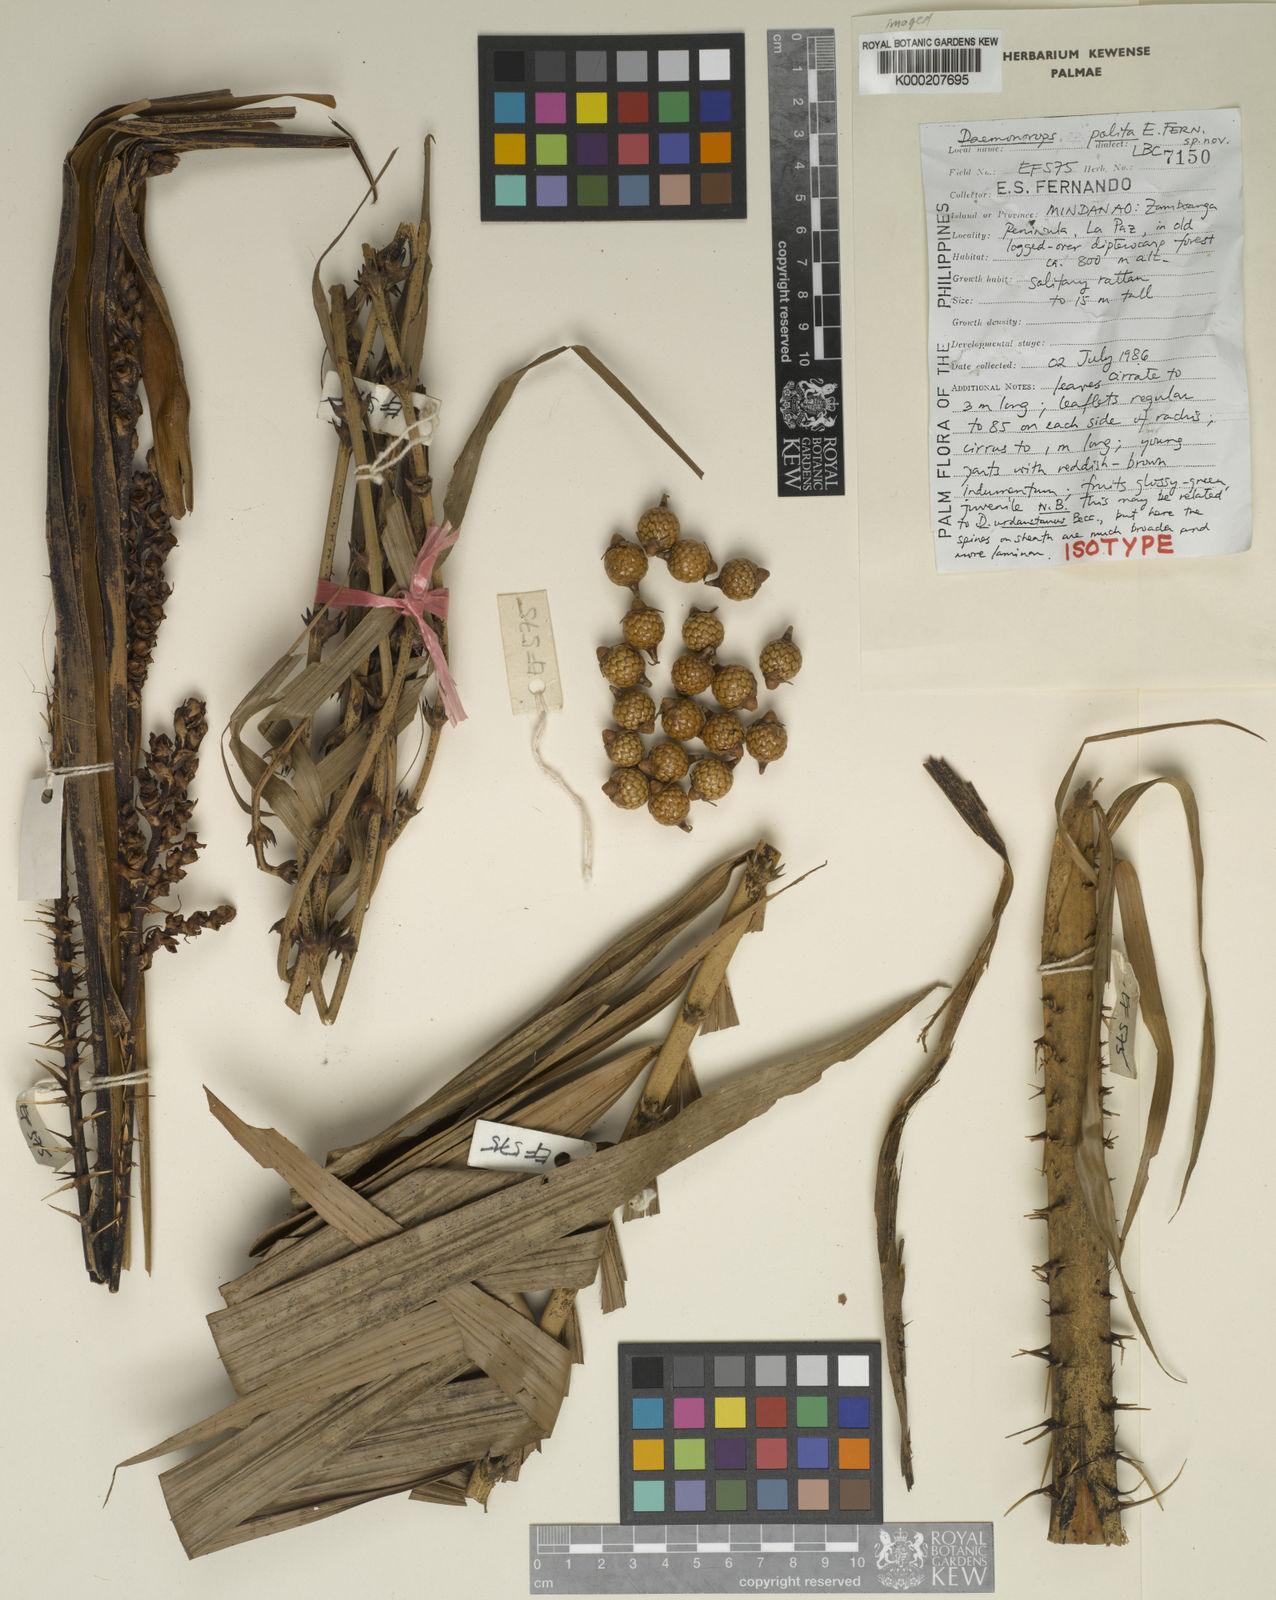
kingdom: Plantae
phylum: Tracheophyta
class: Liliopsida
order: Arecales
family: Arecaceae
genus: Calamus
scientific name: Calamus politus
